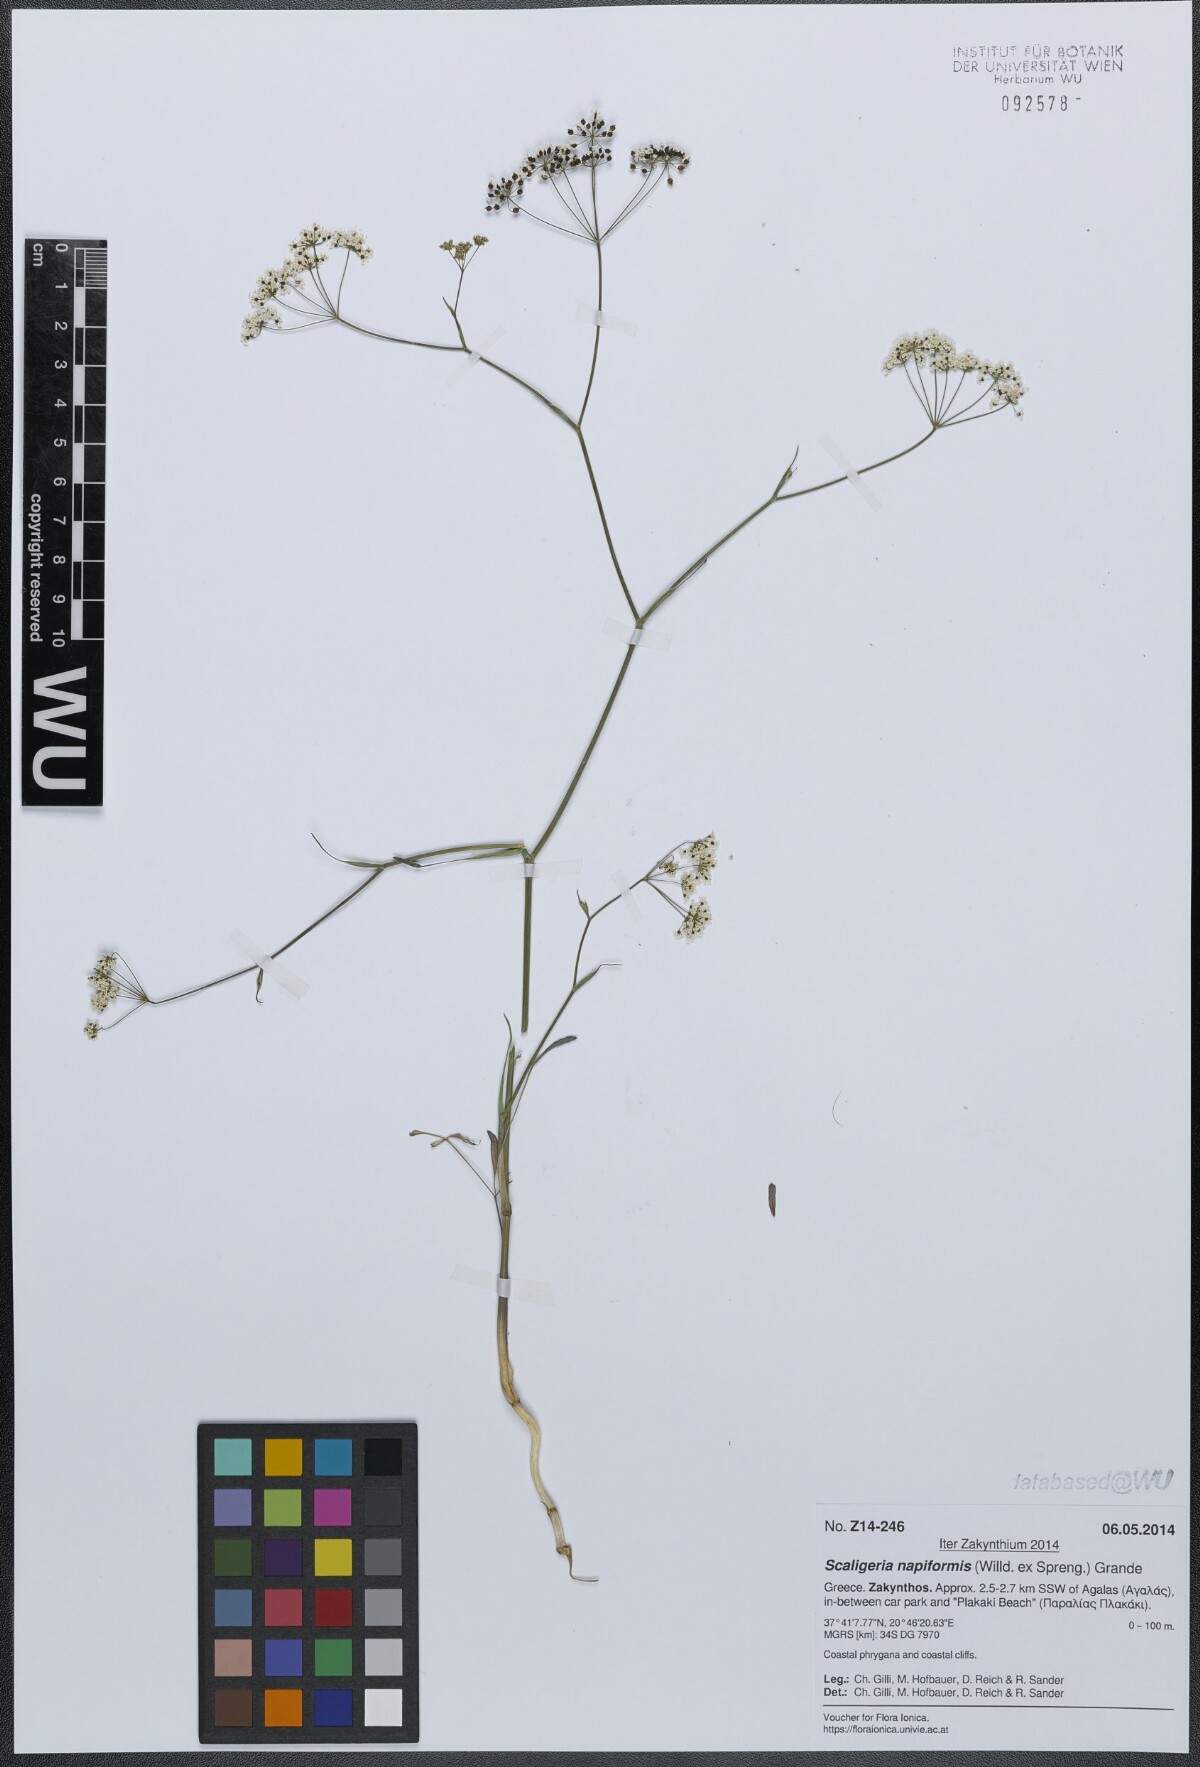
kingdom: Plantae
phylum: Tracheophyta
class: Magnoliopsida
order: Apiales
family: Apiaceae
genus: Scaligeria
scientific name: Scaligeria napiformis
